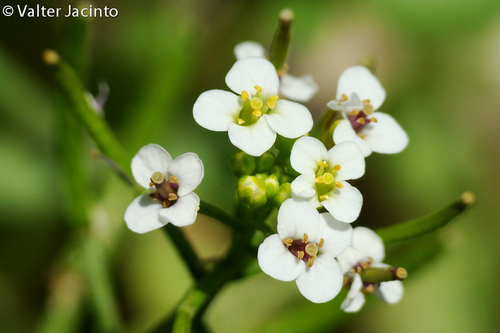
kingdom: Plantae
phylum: Tracheophyta
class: Magnoliopsida
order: Brassicales
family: Brassicaceae
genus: Nasturtium
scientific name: Nasturtium officinale
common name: Watercress
